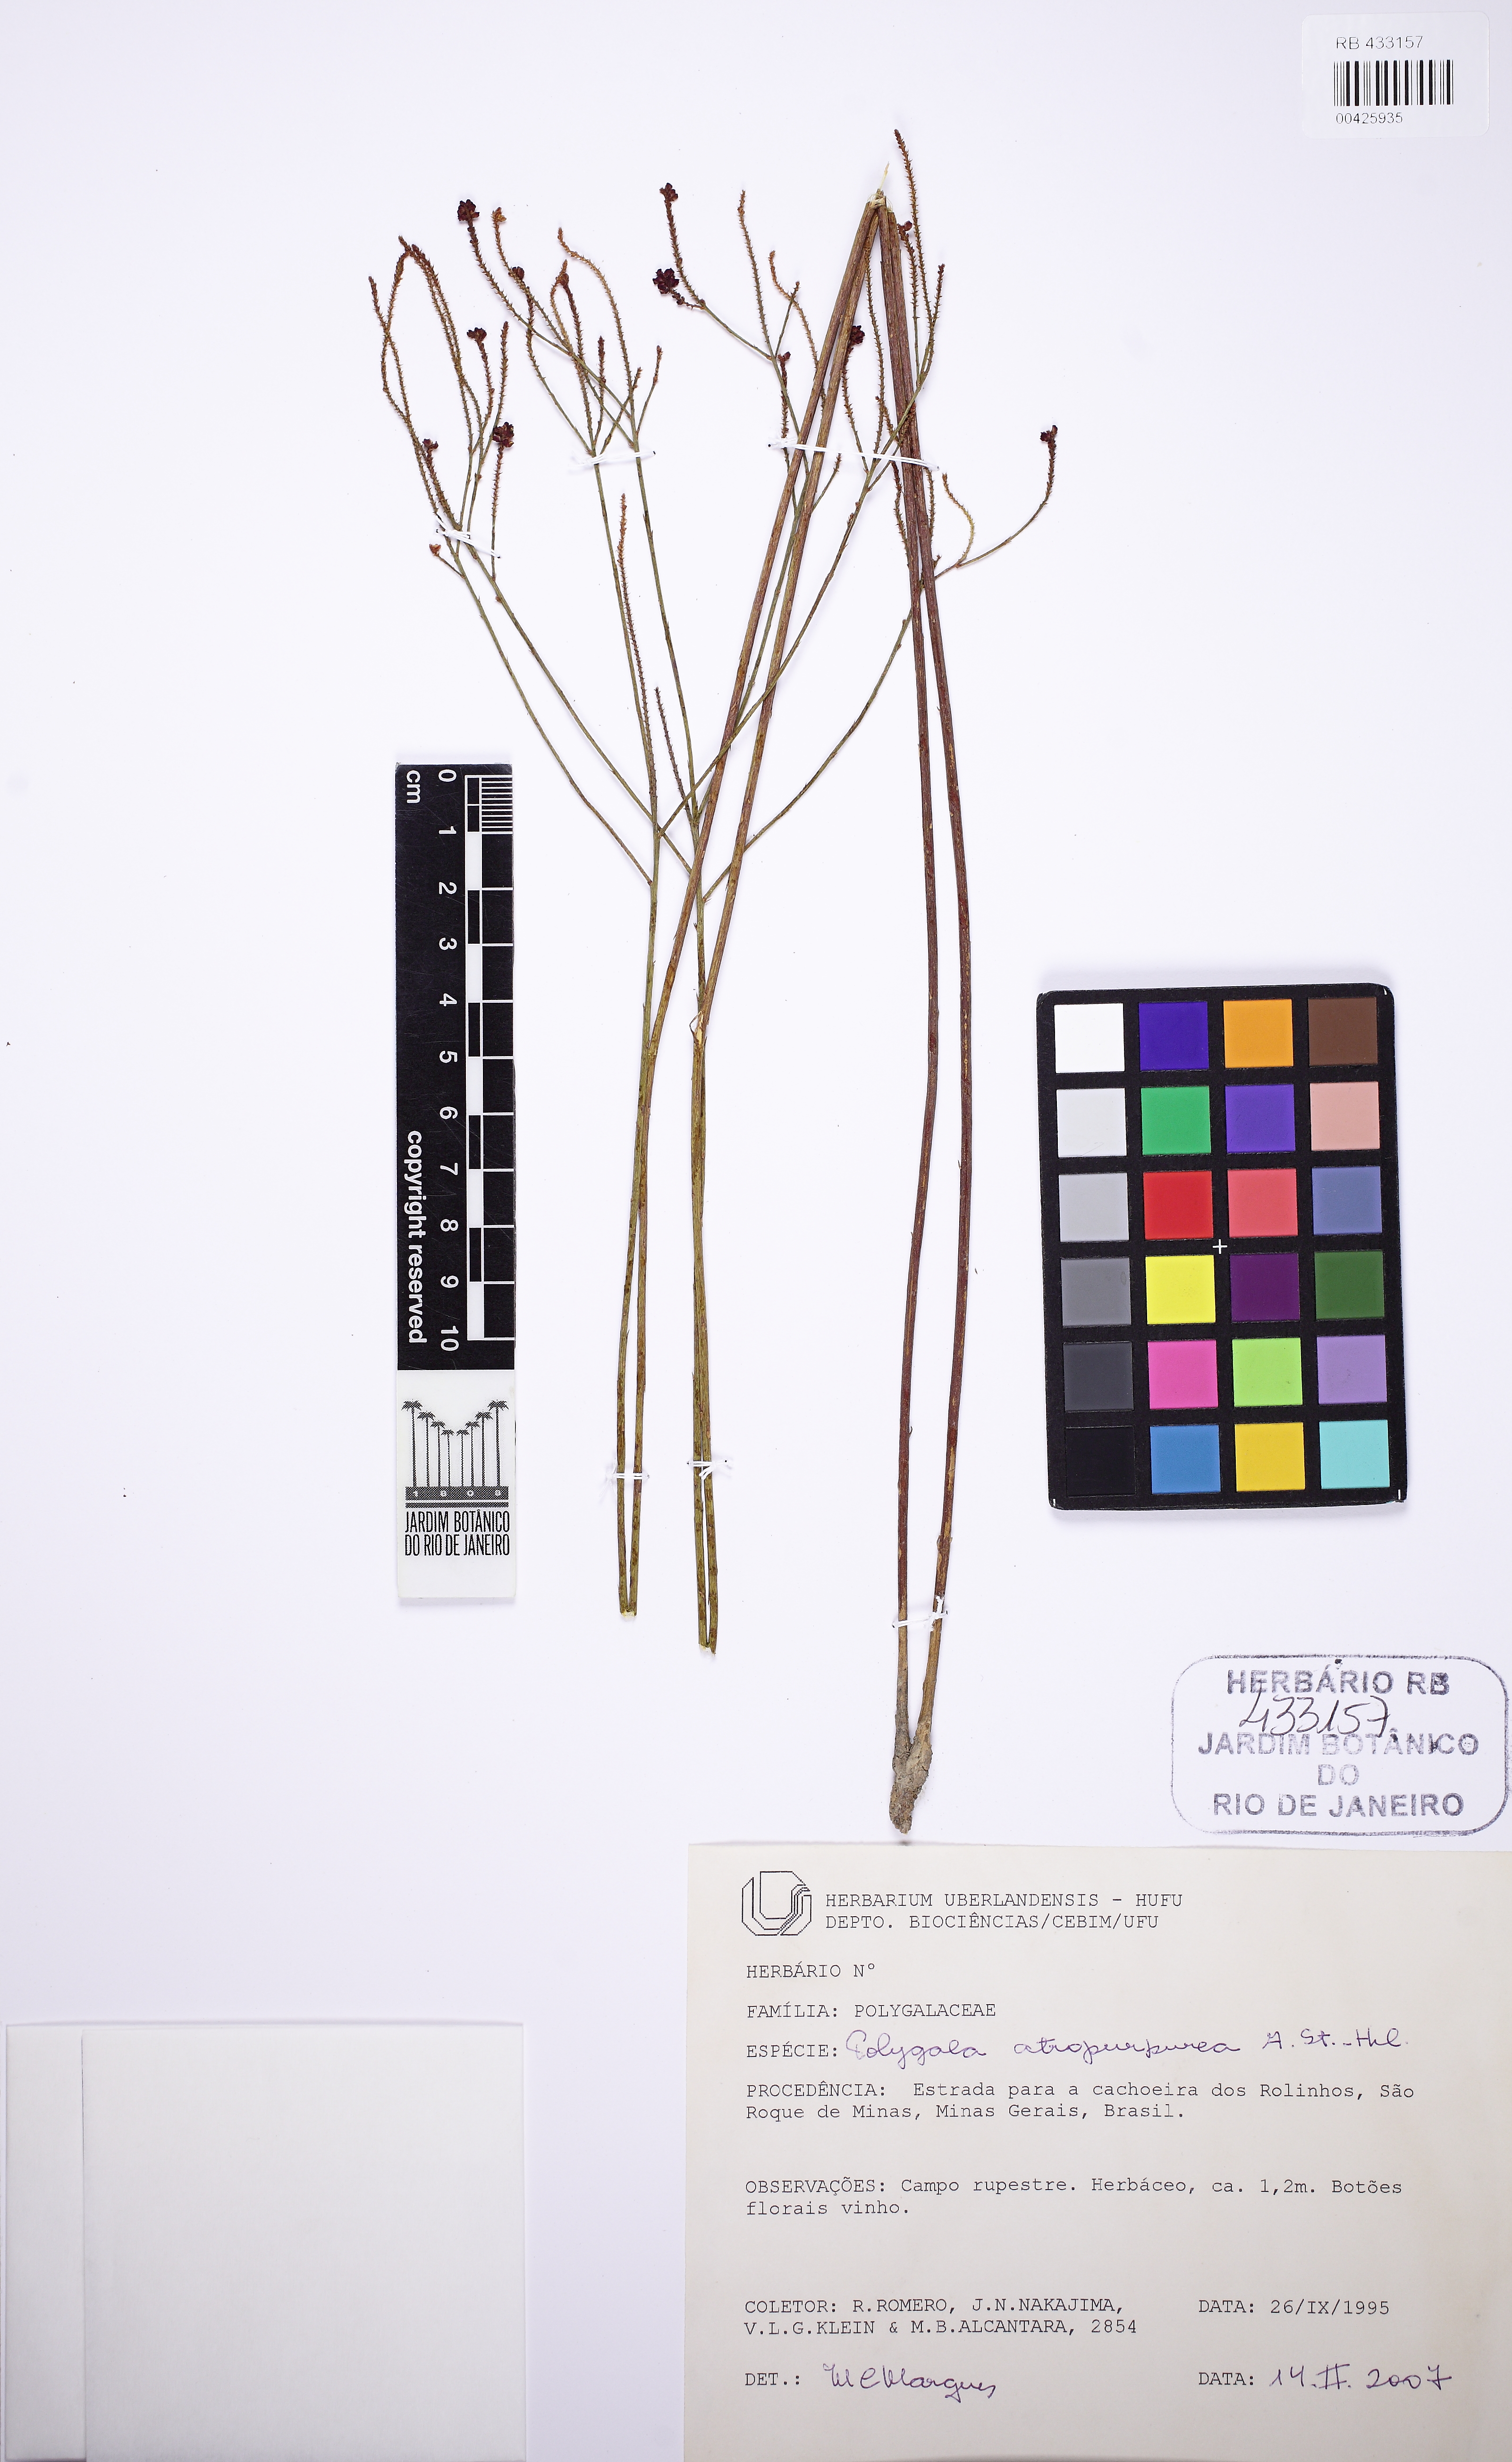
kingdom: Plantae
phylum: Tracheophyta
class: Magnoliopsida
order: Fabales
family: Polygalaceae
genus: Polygala
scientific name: Polygala atropurpurea
